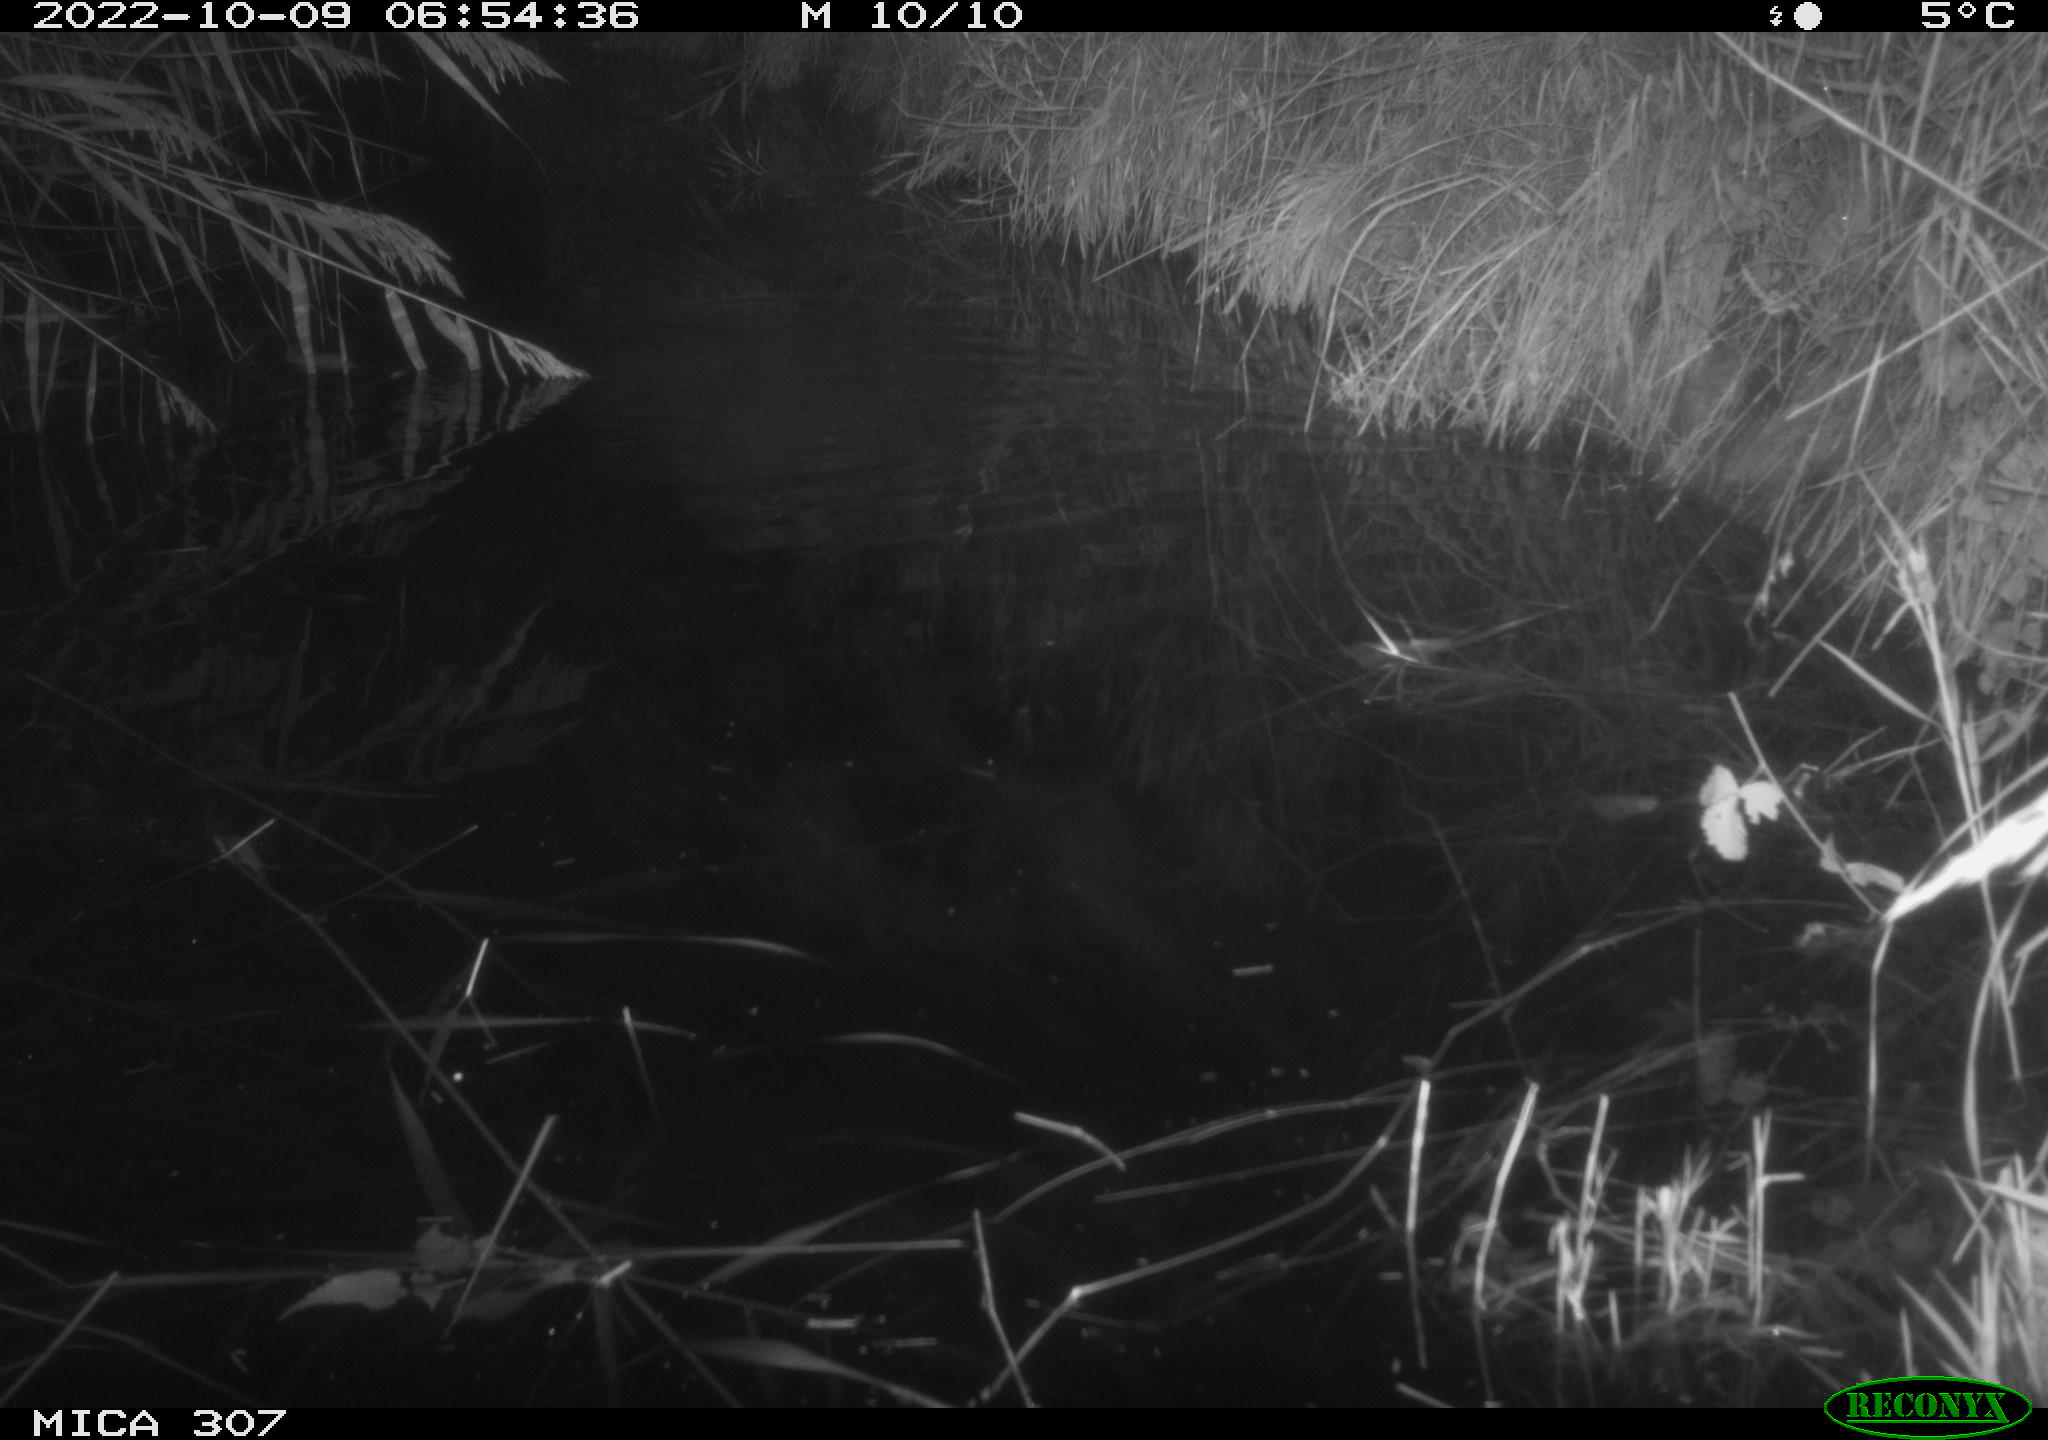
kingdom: Animalia
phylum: Chordata
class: Mammalia
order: Rodentia
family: Muridae
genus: Rattus
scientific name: Rattus norvegicus
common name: Brown rat
